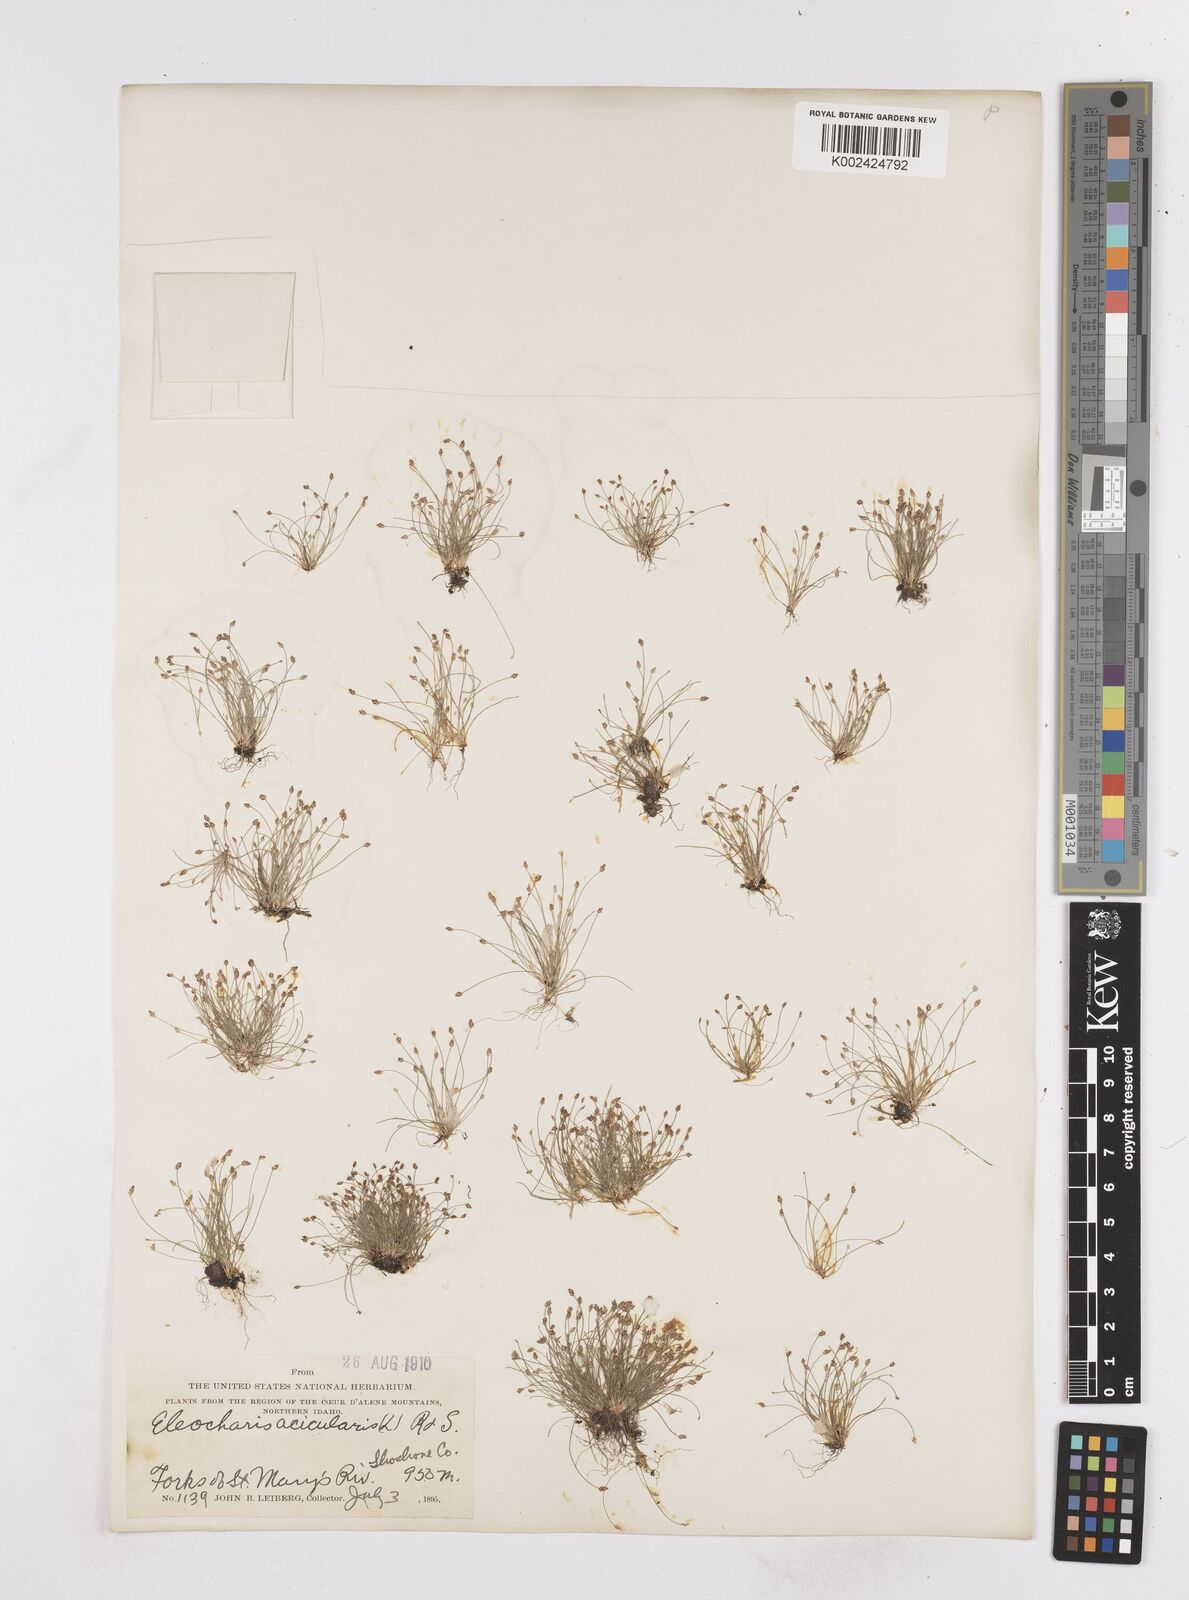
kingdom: Plantae
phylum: Tracheophyta
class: Liliopsida
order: Poales
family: Cyperaceae
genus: Eleocharis
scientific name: Eleocharis acicularis
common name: Needle spike-rush
